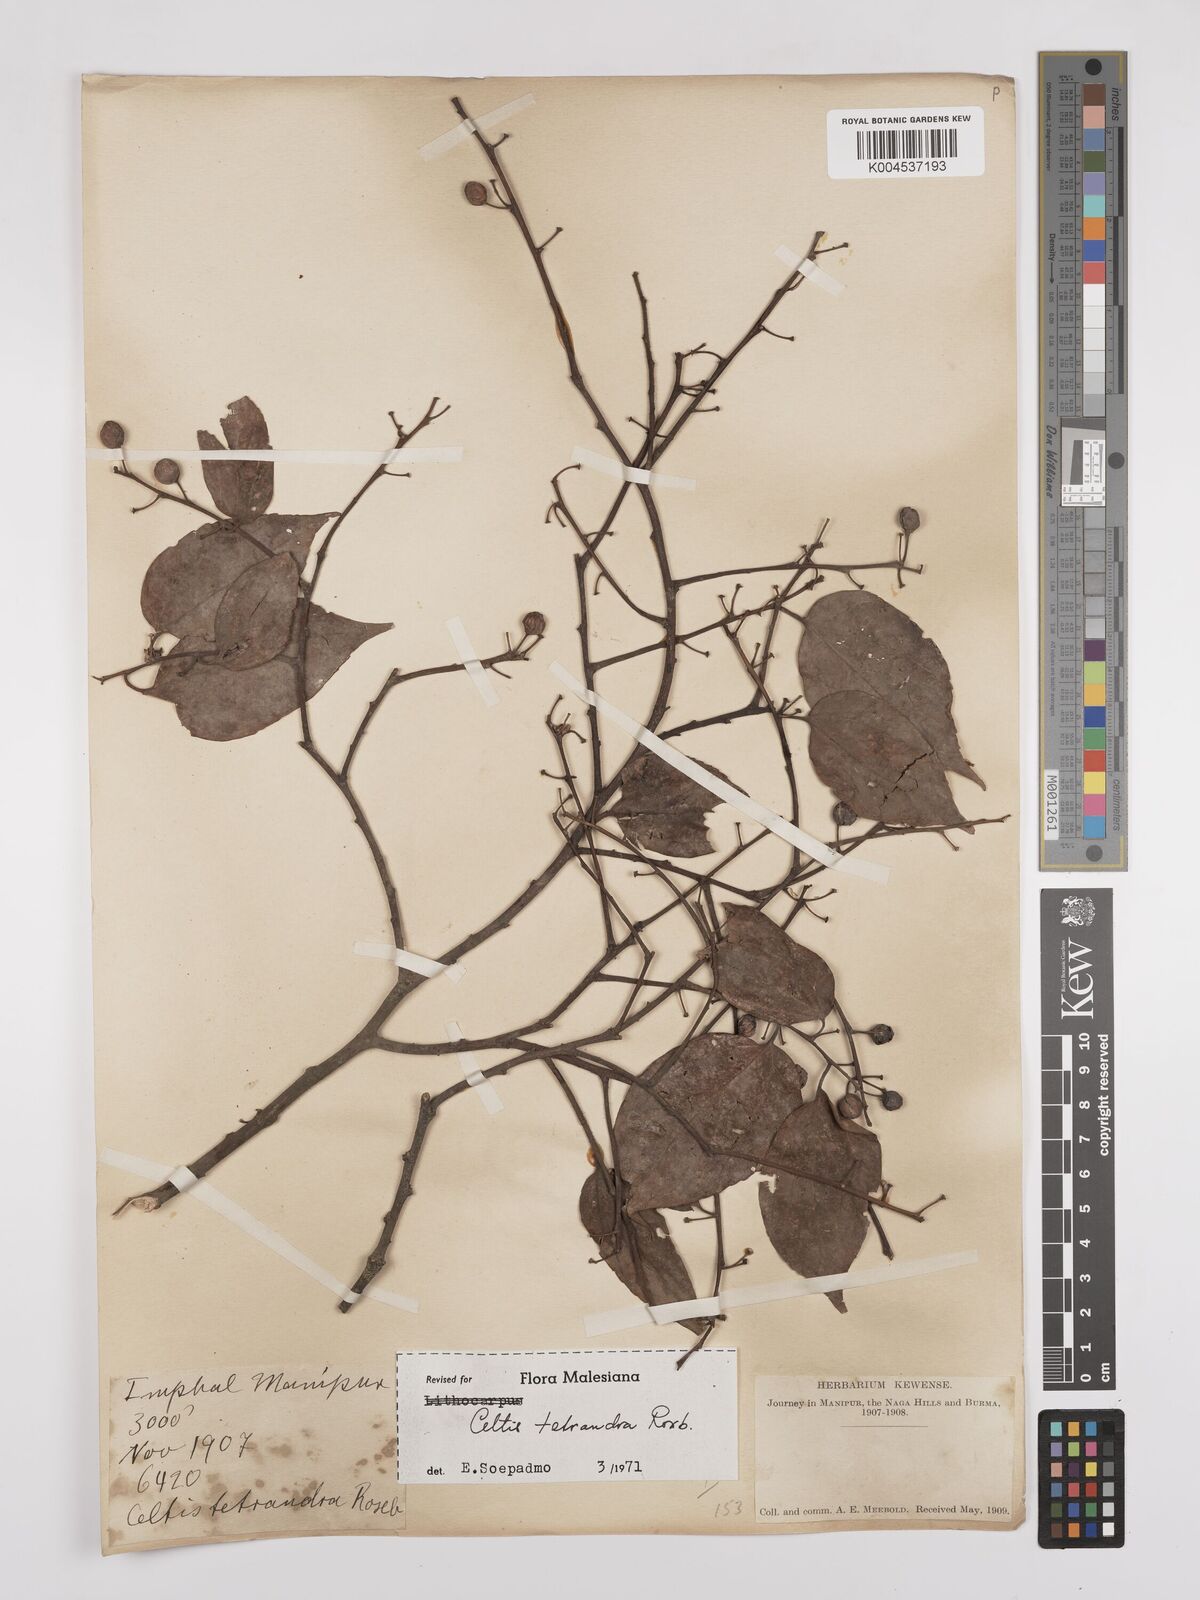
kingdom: Plantae
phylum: Tracheophyta
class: Magnoliopsida
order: Rosales
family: Cannabaceae
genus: Celtis
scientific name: Celtis tetrandra
